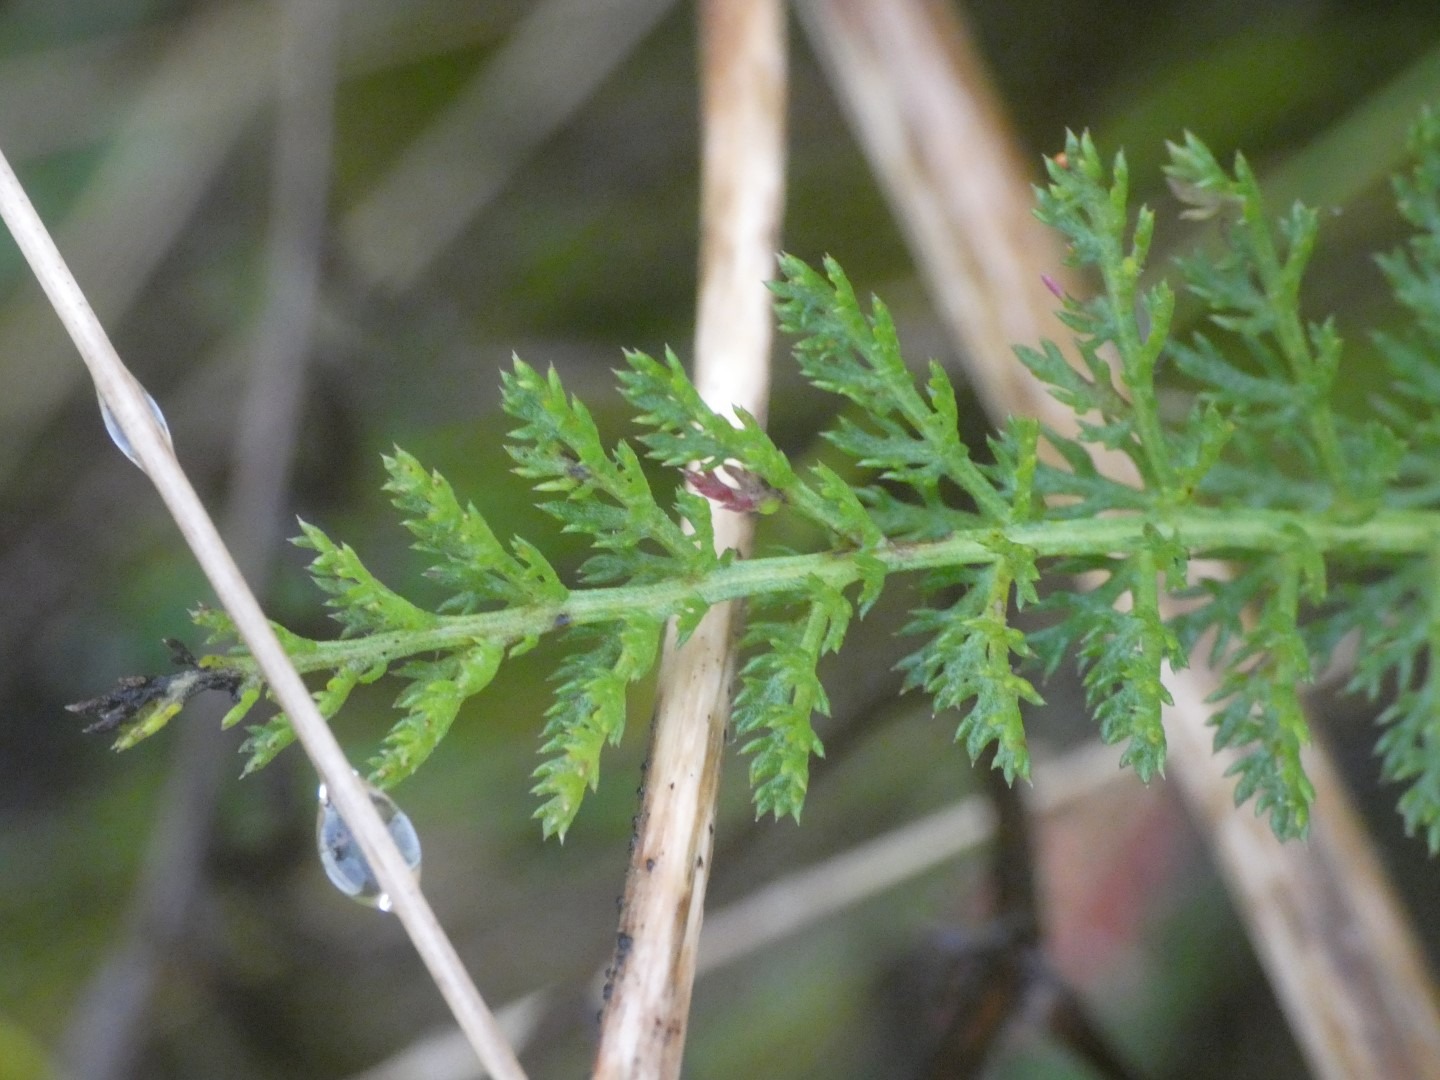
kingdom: Plantae
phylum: Tracheophyta
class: Magnoliopsida
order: Asterales
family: Asteraceae
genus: Achillea
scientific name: Achillea millefolium
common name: Almindelig røllike
